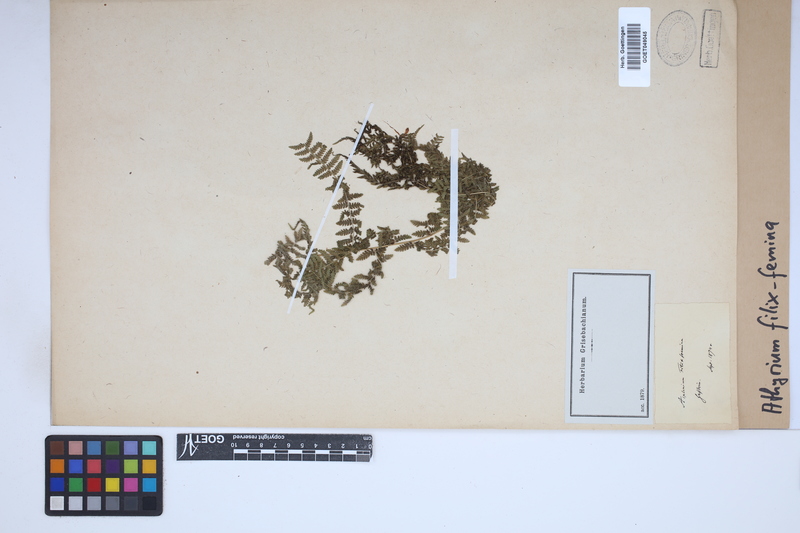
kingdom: Plantae
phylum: Tracheophyta
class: Polypodiopsida
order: Polypodiales
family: Athyriaceae
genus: Athyrium
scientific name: Athyrium filix-femina
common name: Lady fern
